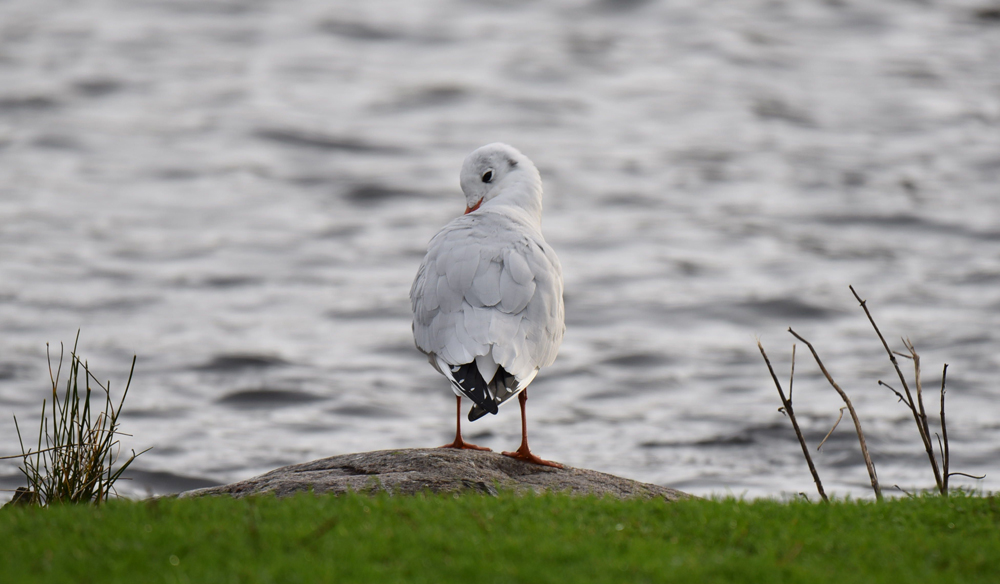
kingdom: Animalia
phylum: Chordata
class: Aves
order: Charadriiformes
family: Laridae
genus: Chroicocephalus
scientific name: Chroicocephalus ridibundus
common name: Black-headed gull
